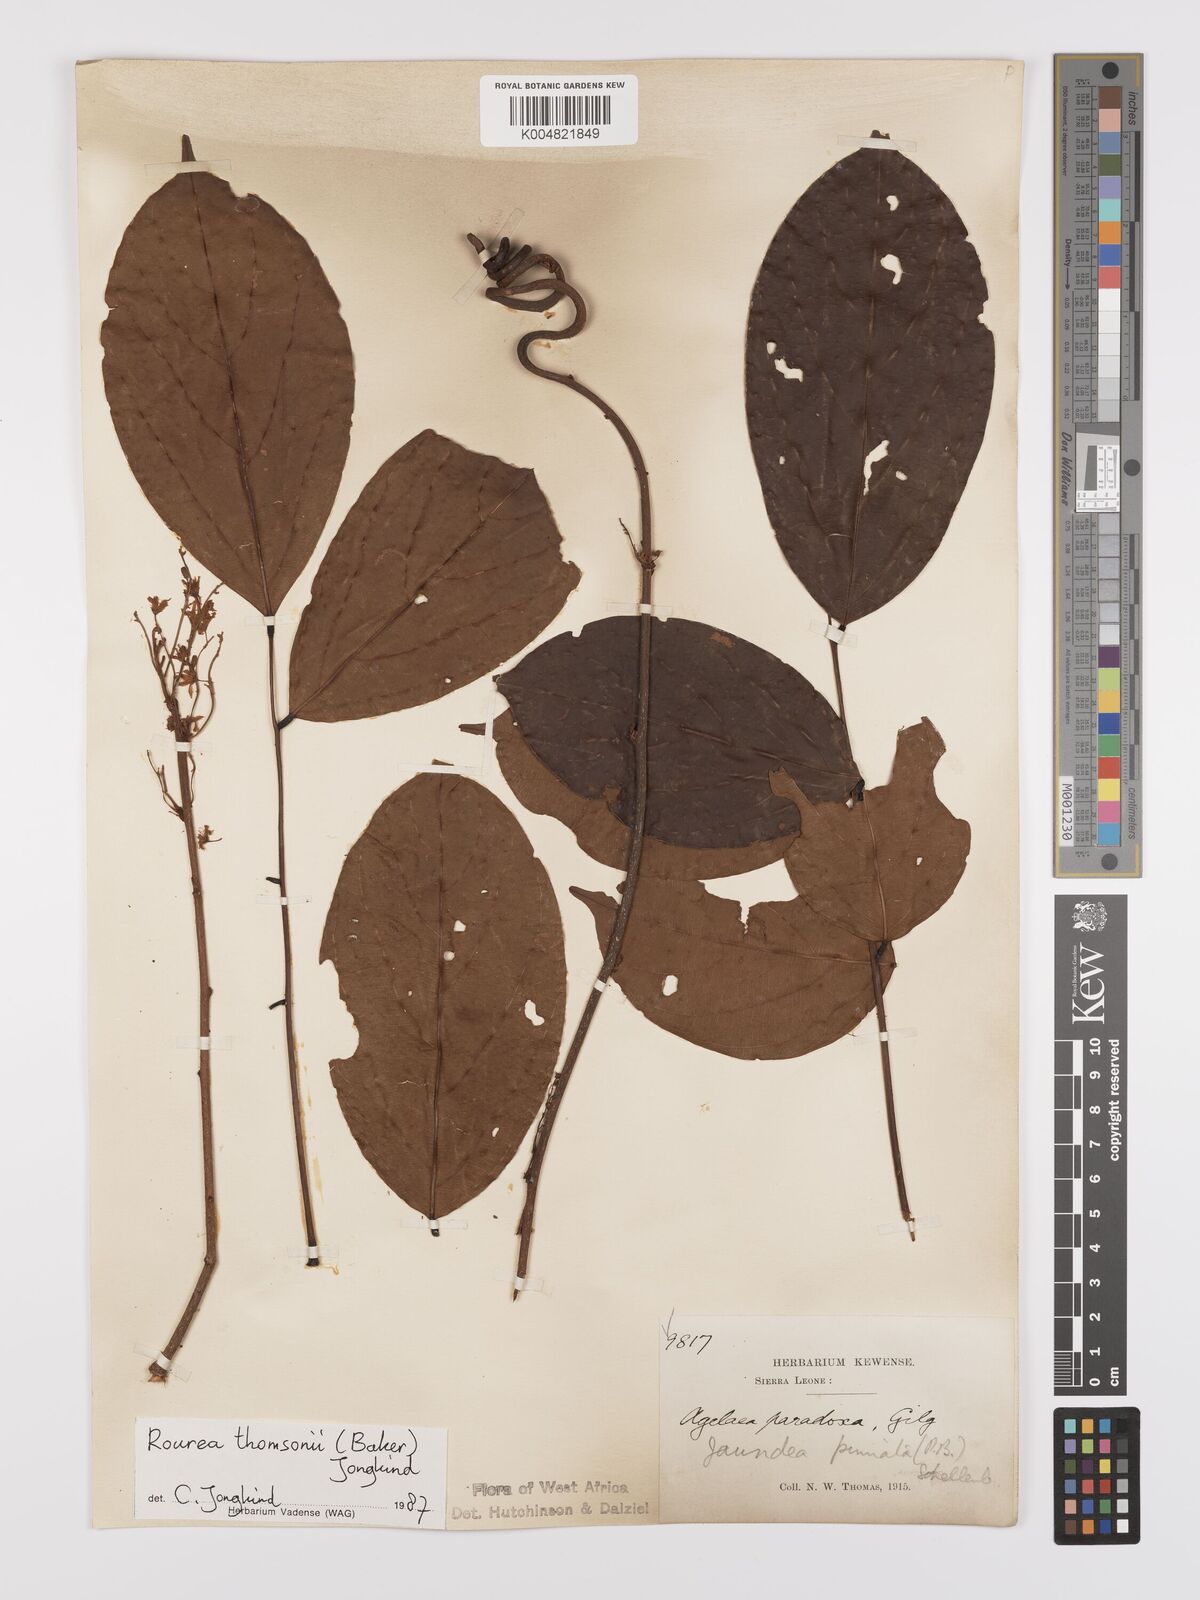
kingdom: Plantae
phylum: Tracheophyta
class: Magnoliopsida
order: Oxalidales
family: Connaraceae
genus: Rourea
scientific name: Rourea pinnata
